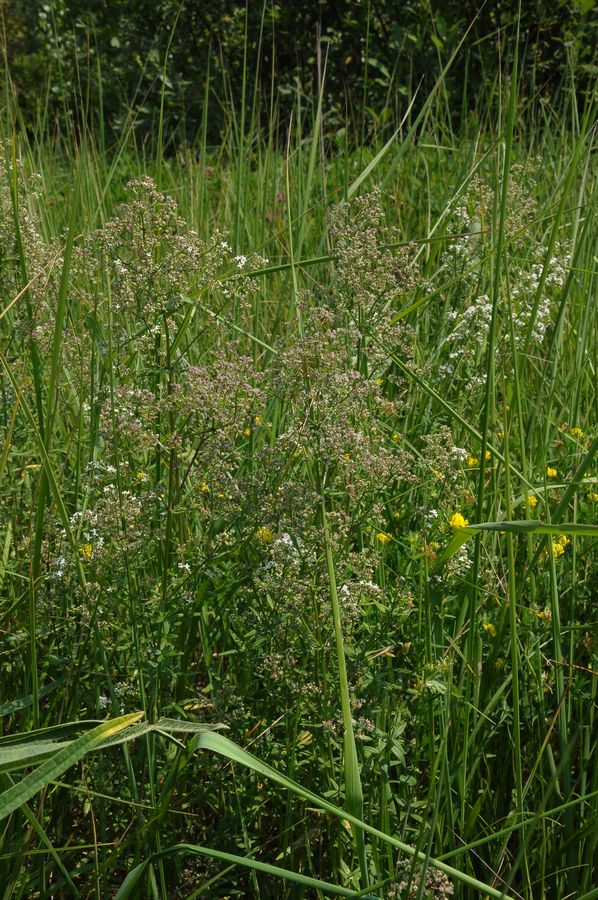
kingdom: Plantae
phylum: Tracheophyta
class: Magnoliopsida
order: Gentianales
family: Rubiaceae
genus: Galium
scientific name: Galium boreale
